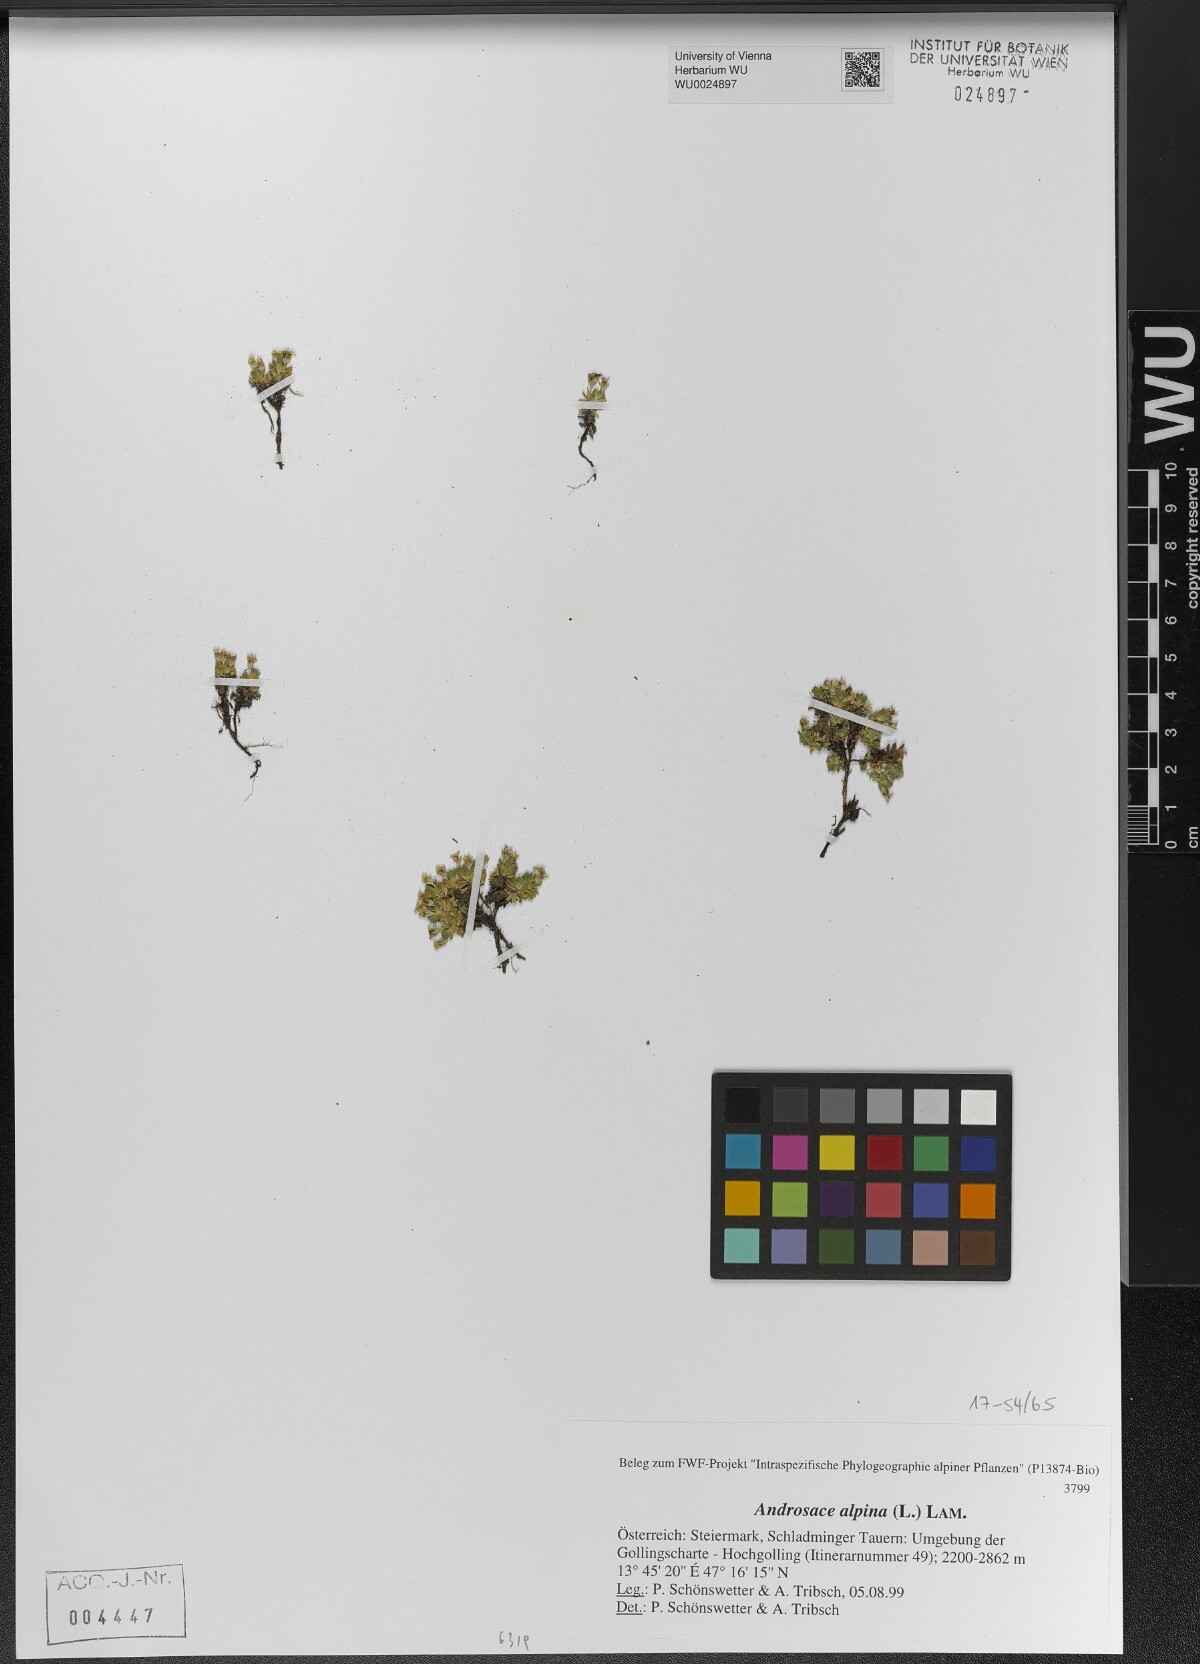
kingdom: Plantae
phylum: Tracheophyta
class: Magnoliopsida
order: Ericales
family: Primulaceae
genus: Androsace
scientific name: Androsace alpina
